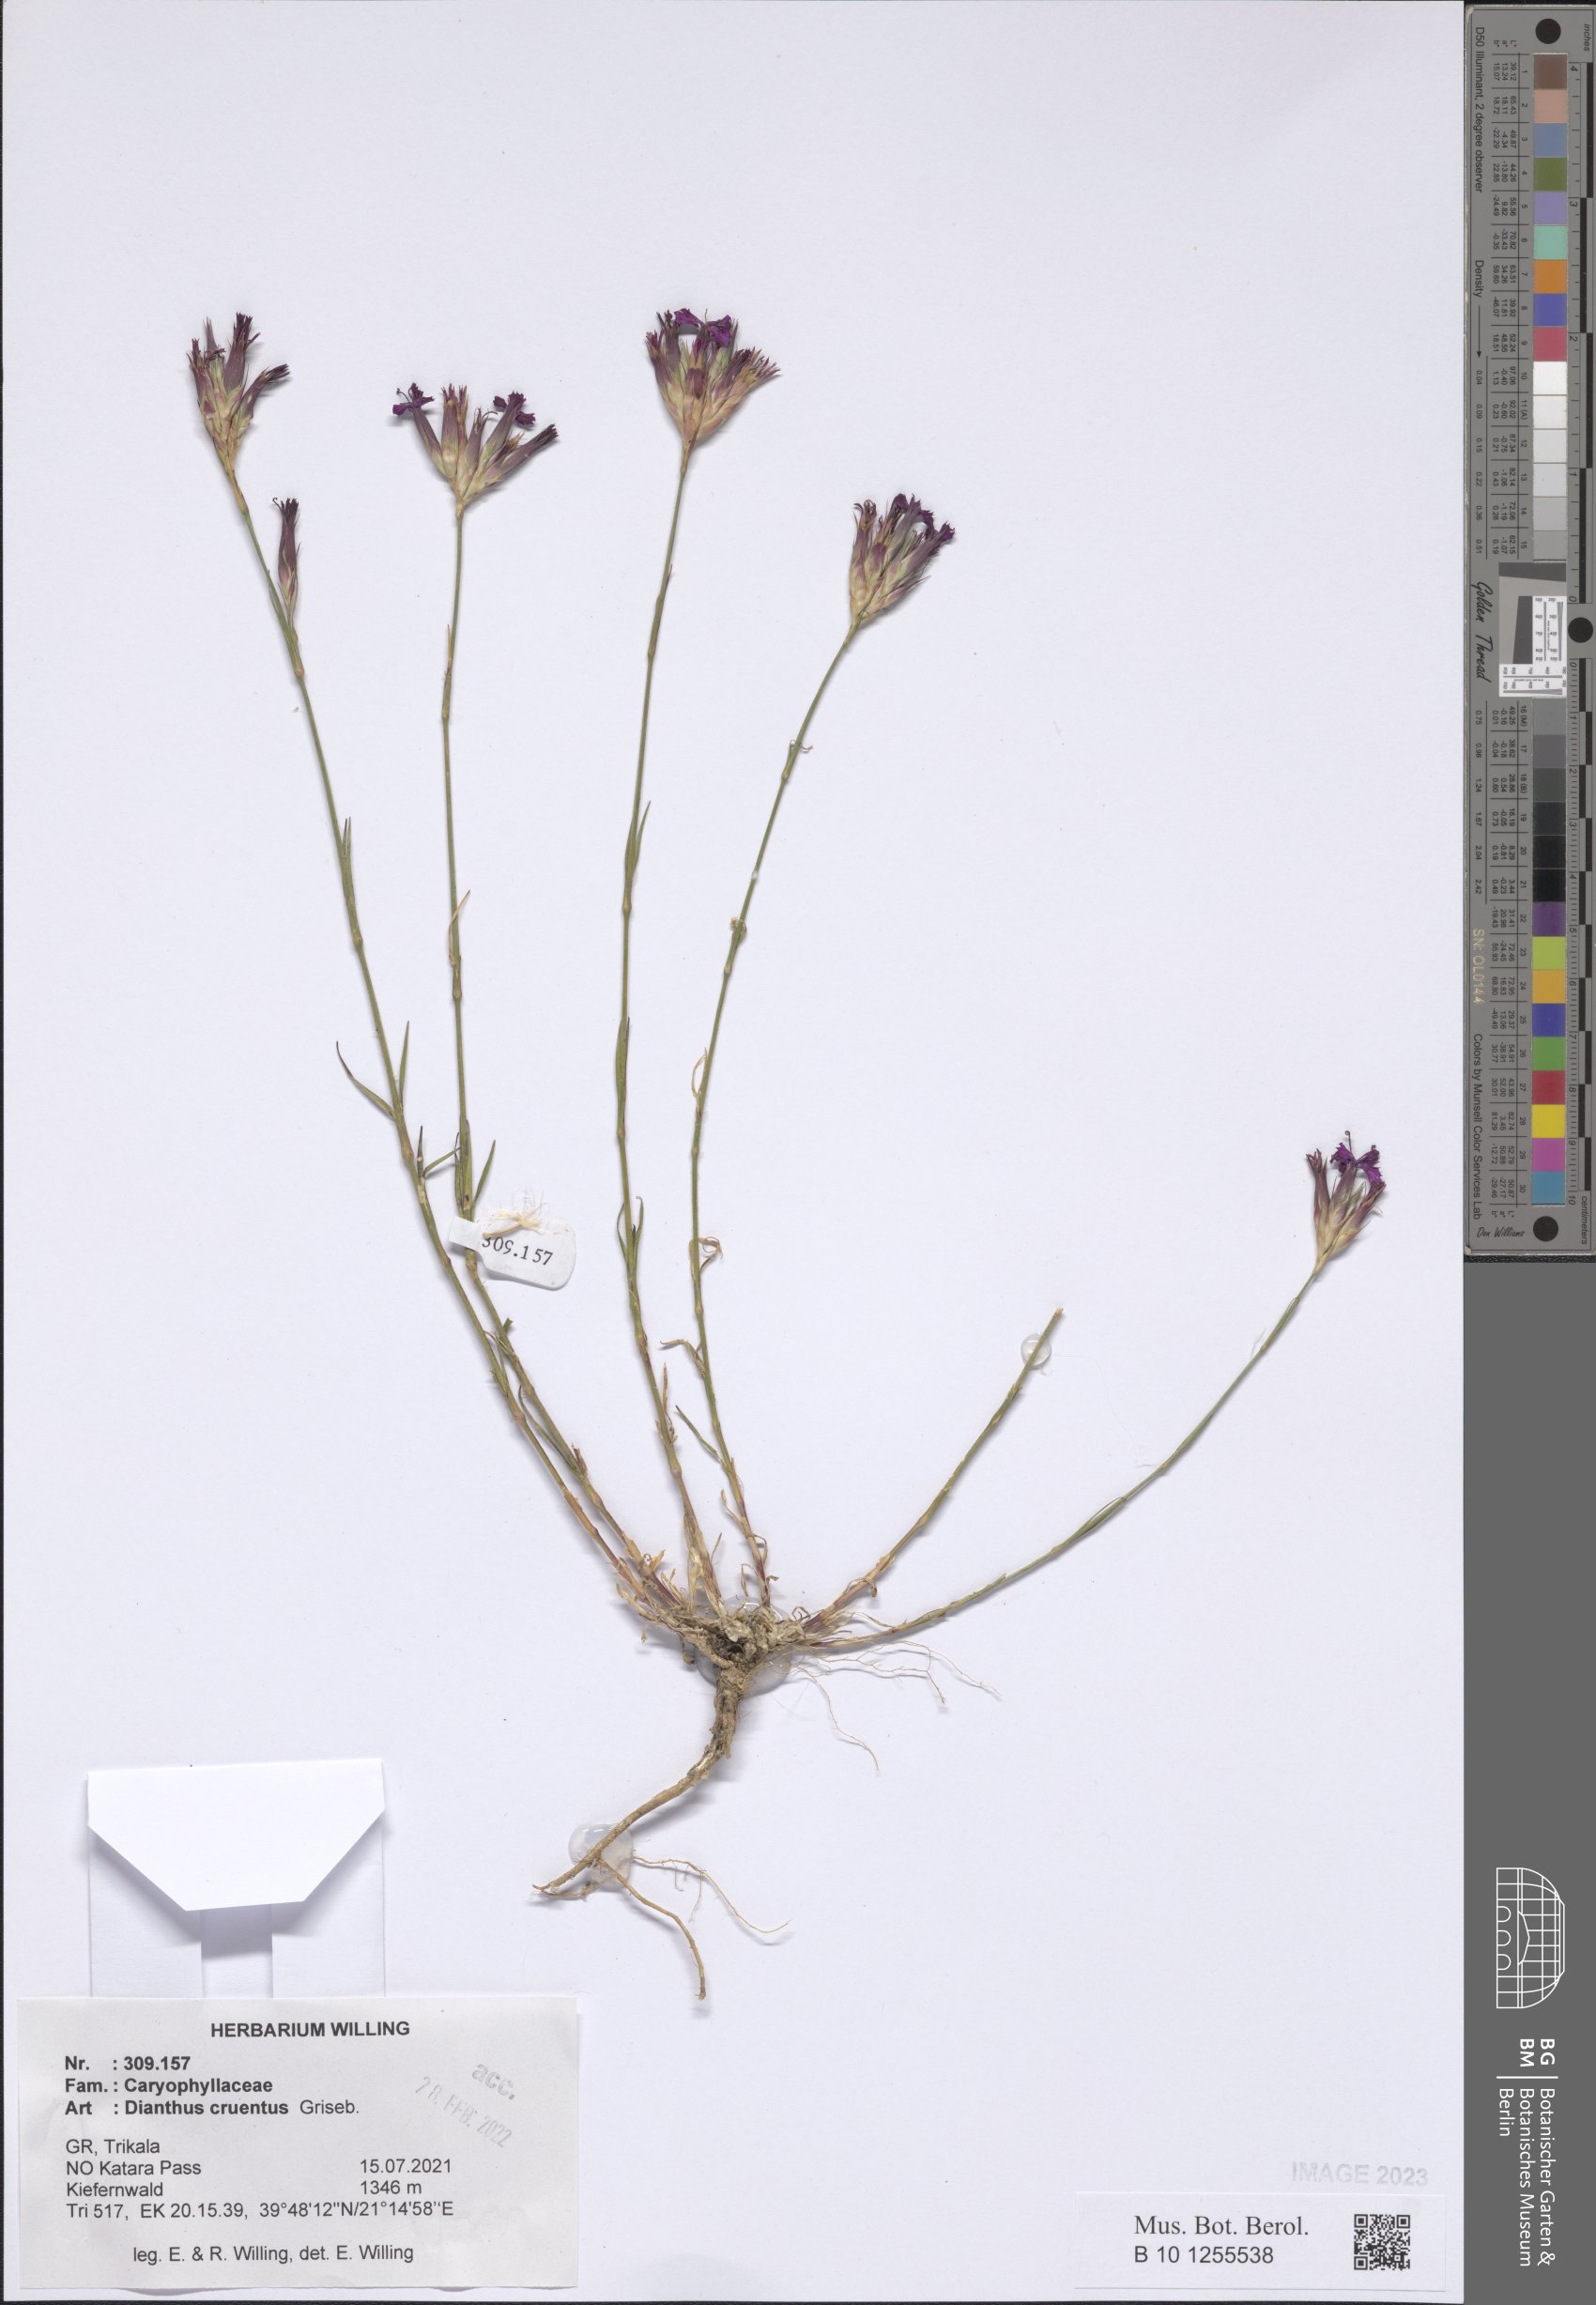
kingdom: Plantae
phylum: Tracheophyta
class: Magnoliopsida
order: Caryophyllales
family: Caryophyllaceae
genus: Dianthus
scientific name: Dianthus cruentus
